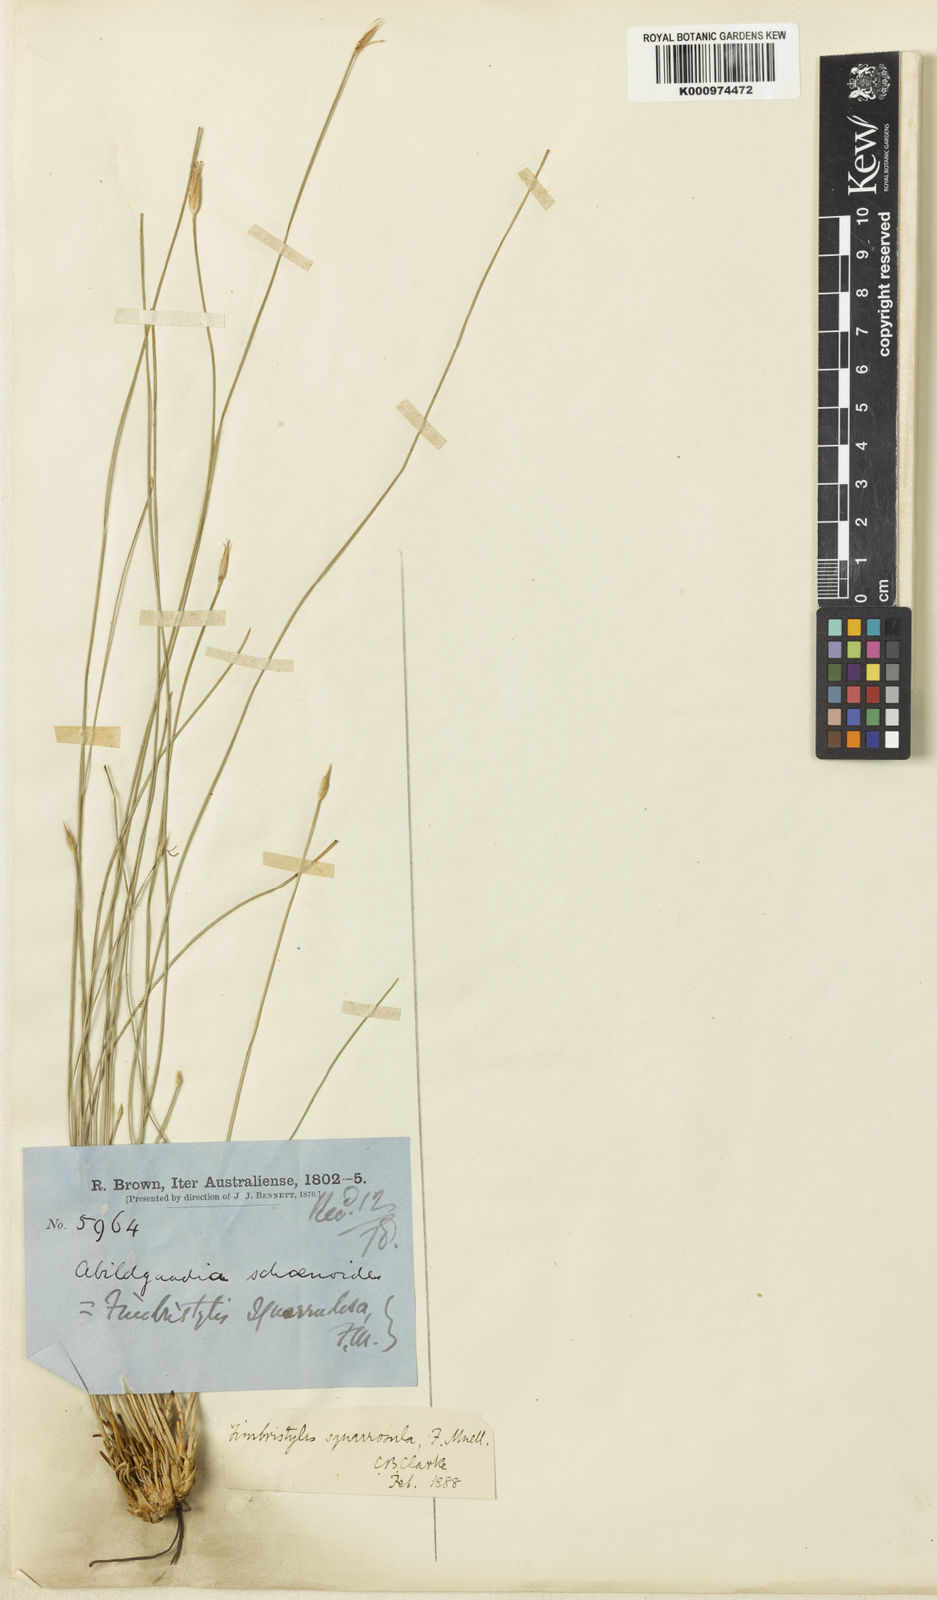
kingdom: Plantae
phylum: Tracheophyta
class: Liliopsida
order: Poales
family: Cyperaceae
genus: Abildgaardia
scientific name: Abildgaardia schoenoides
